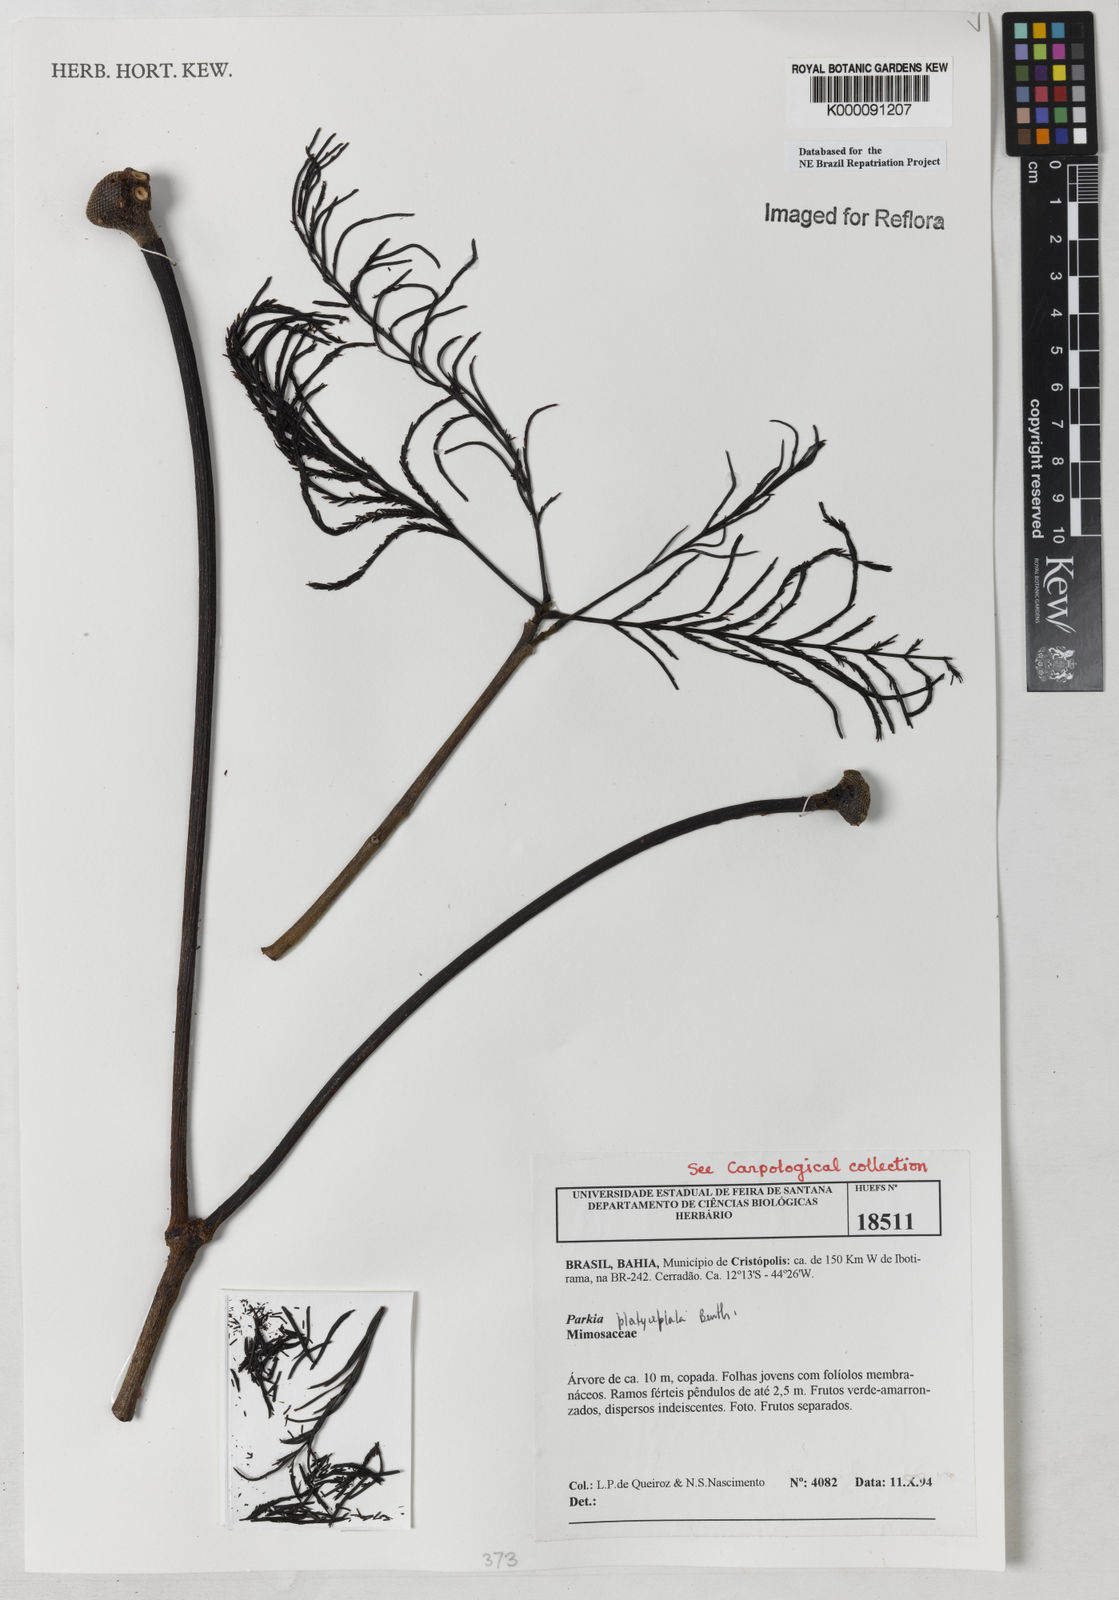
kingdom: Plantae
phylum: Tracheophyta
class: Magnoliopsida
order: Fabales
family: Fabaceae
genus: Parkia
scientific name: Parkia platycephala
